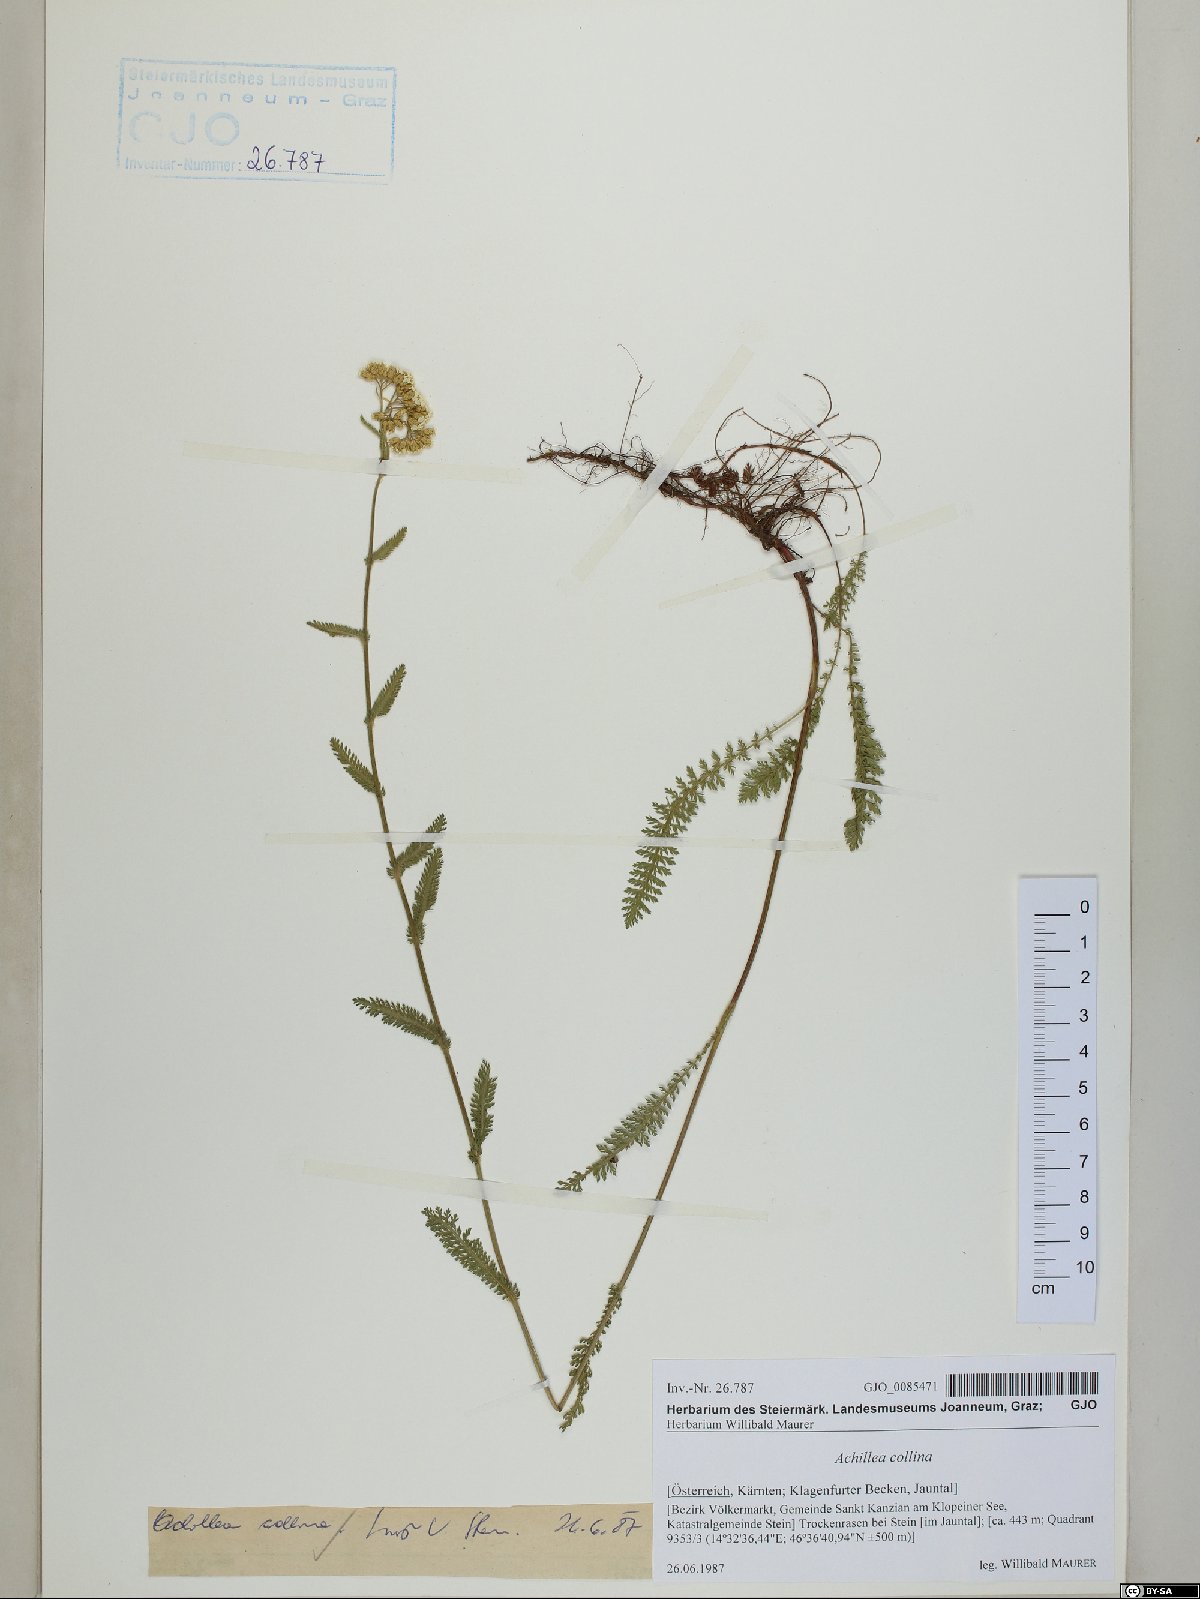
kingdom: Plantae
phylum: Tracheophyta
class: Magnoliopsida
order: Asterales
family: Asteraceae
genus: Achillea
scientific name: Achillea collina
